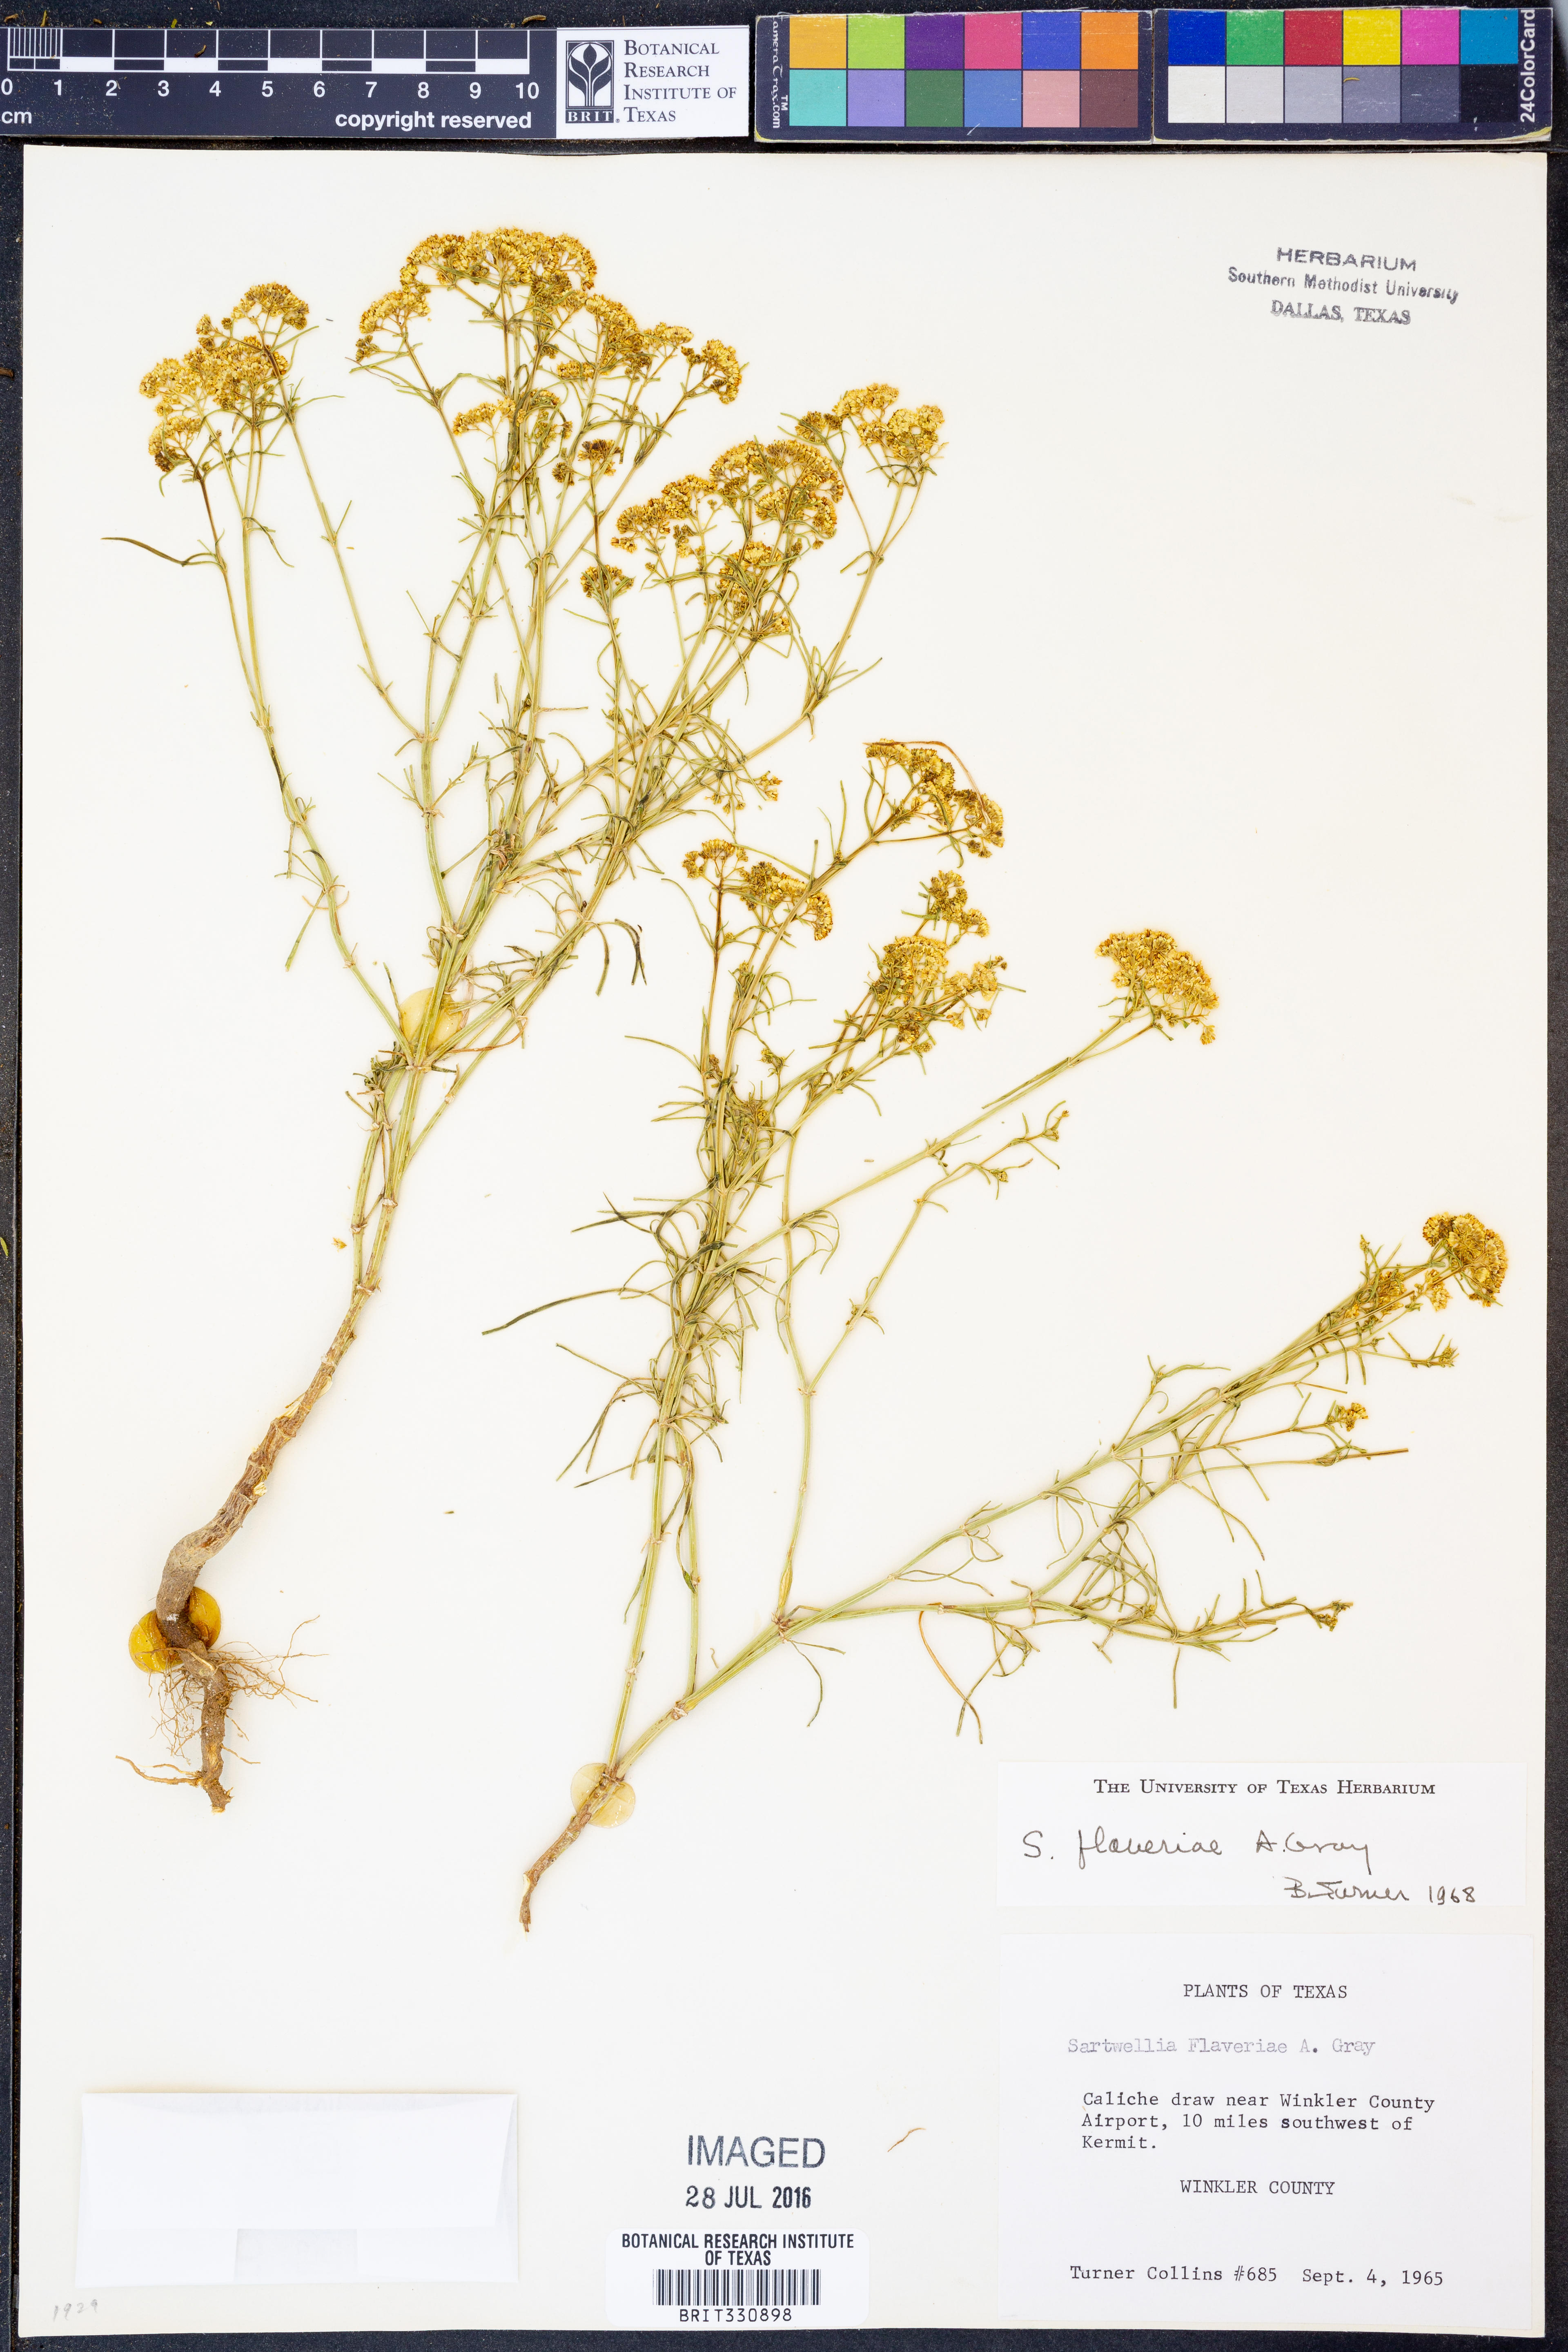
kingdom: Plantae
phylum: Tracheophyta
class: Magnoliopsida
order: Asterales
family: Asteraceae
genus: Sartwellia
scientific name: Sartwellia flaveriae
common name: Sartwellia
